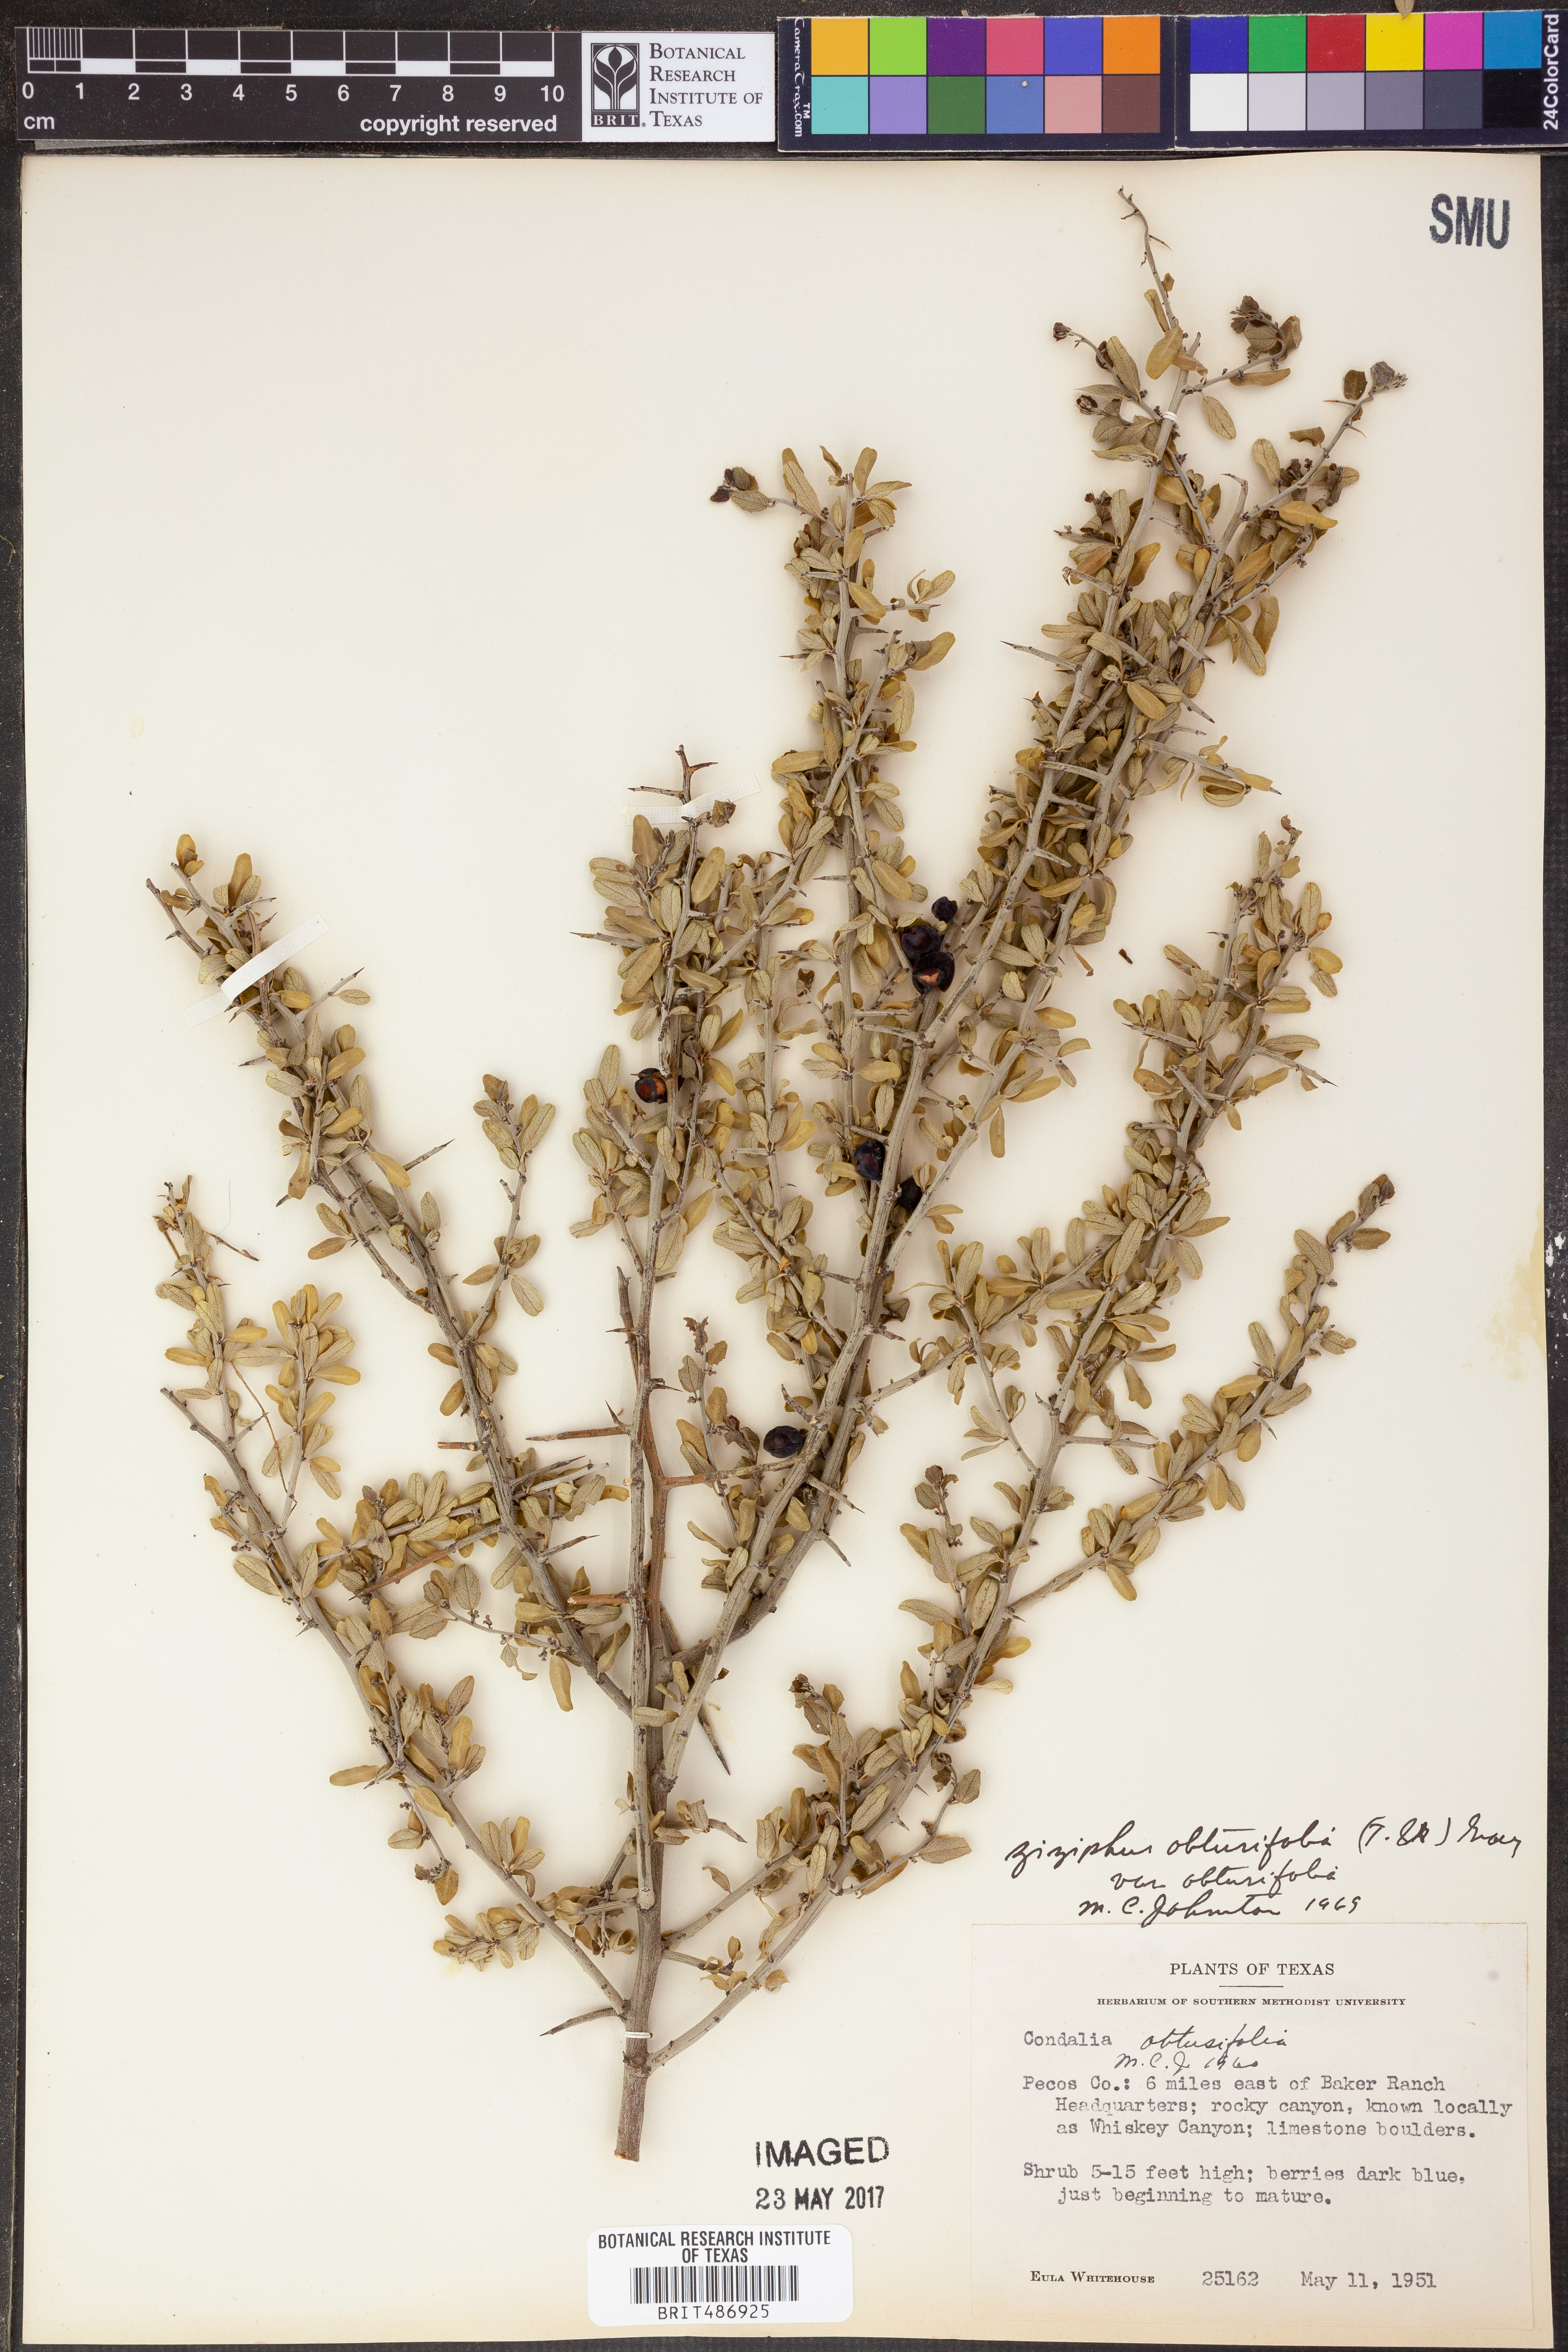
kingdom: Plantae
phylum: Tracheophyta
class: Magnoliopsida
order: Rosales
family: Rhamnaceae
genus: Sarcomphalus
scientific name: Sarcomphalus obtusifolius
